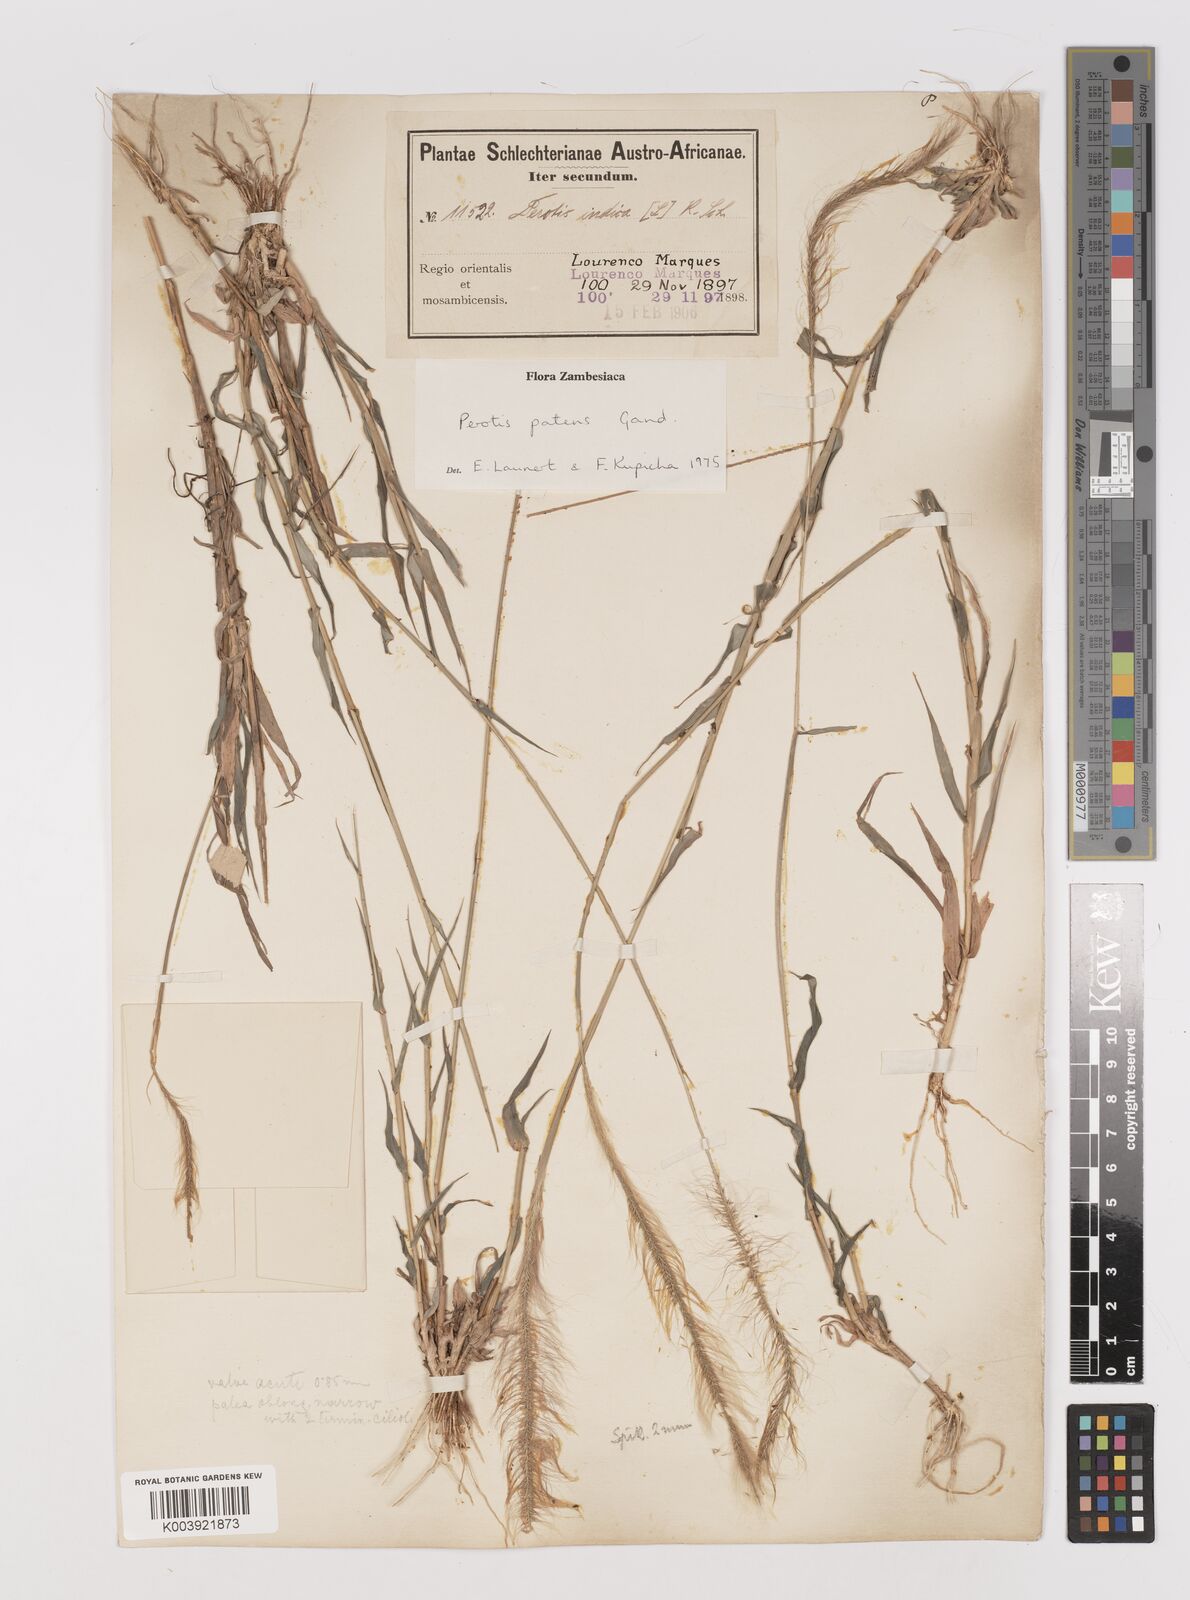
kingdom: Plantae
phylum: Tracheophyta
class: Liliopsida
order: Poales
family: Poaceae
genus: Perotis
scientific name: Perotis patens
